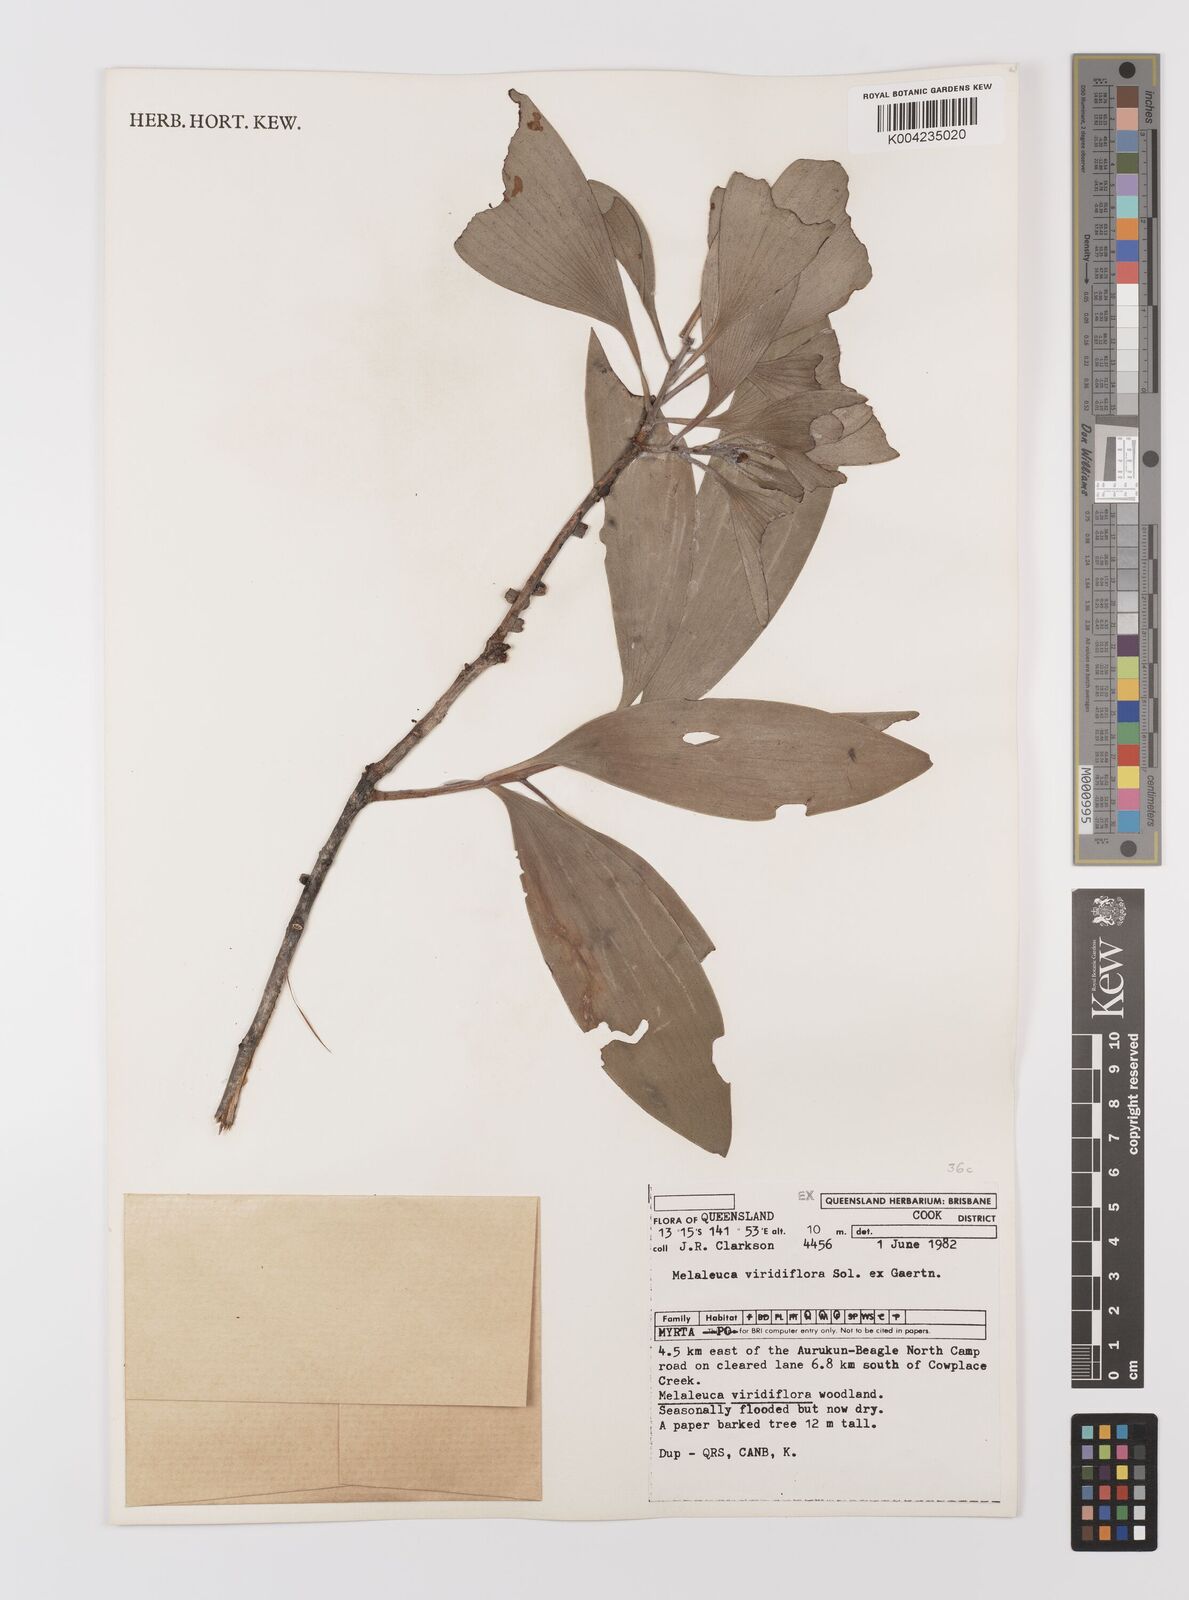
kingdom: Plantae
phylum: Tracheophyta
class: Magnoliopsida
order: Myrtales
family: Myrtaceae
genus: Melaleuca
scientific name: Melaleuca viridiflora
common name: Brown-leaved paperbark
